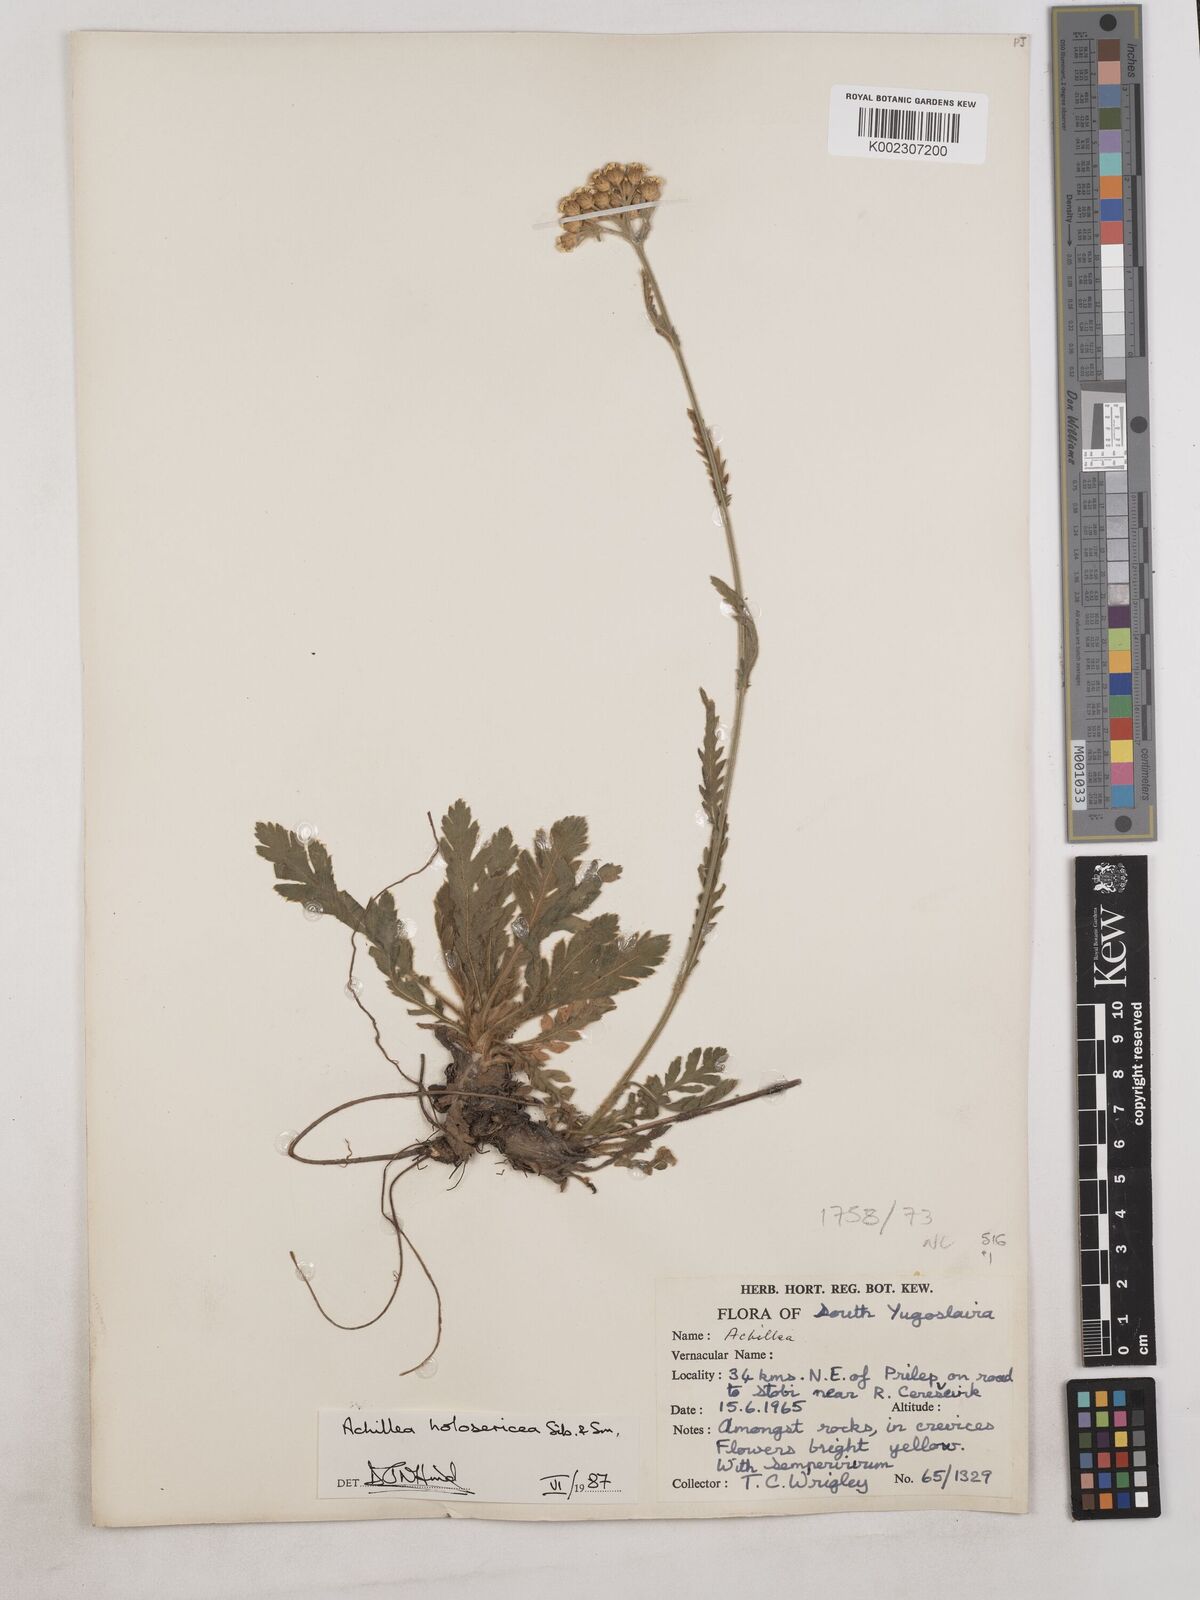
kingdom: Plantae
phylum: Tracheophyta
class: Magnoliopsida
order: Asterales
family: Asteraceae
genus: Achillea
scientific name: Achillea holosericea
